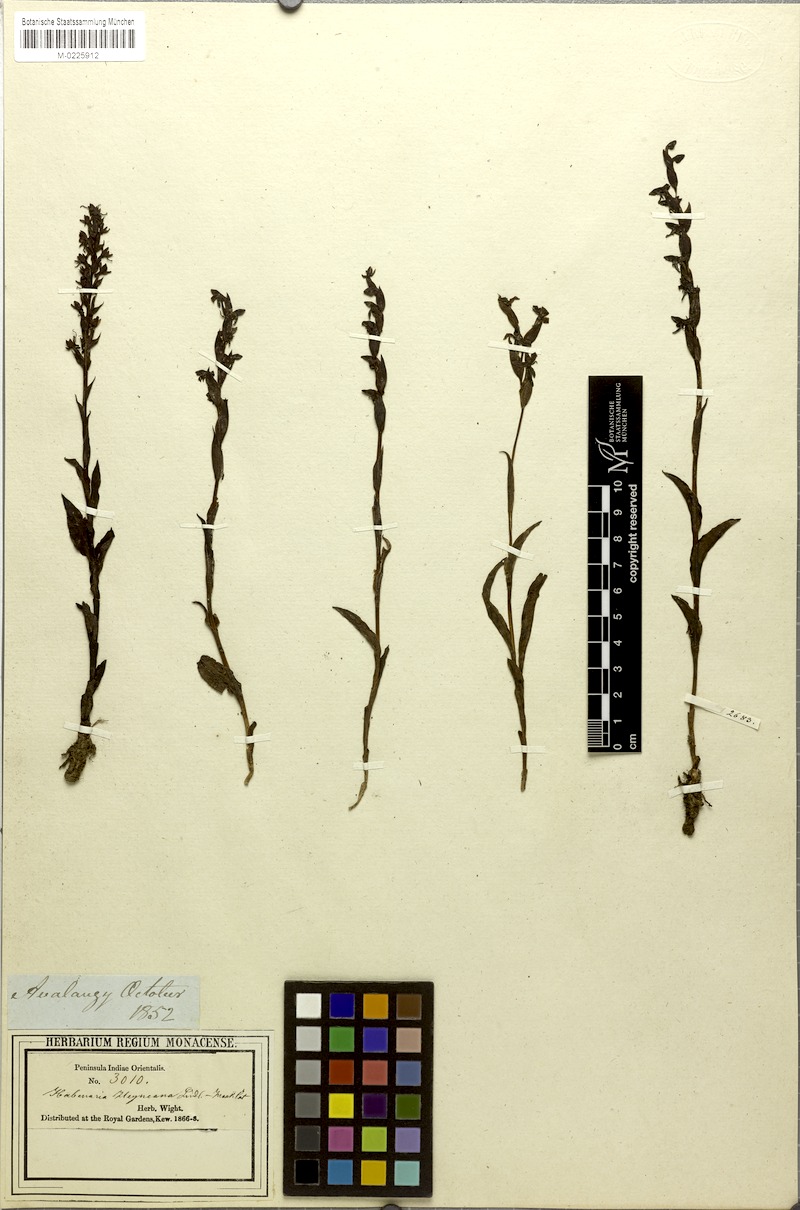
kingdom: Plantae
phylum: Tracheophyta
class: Liliopsida
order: Asparagales
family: Orchidaceae
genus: Habenaria
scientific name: Habenaria heyneana
